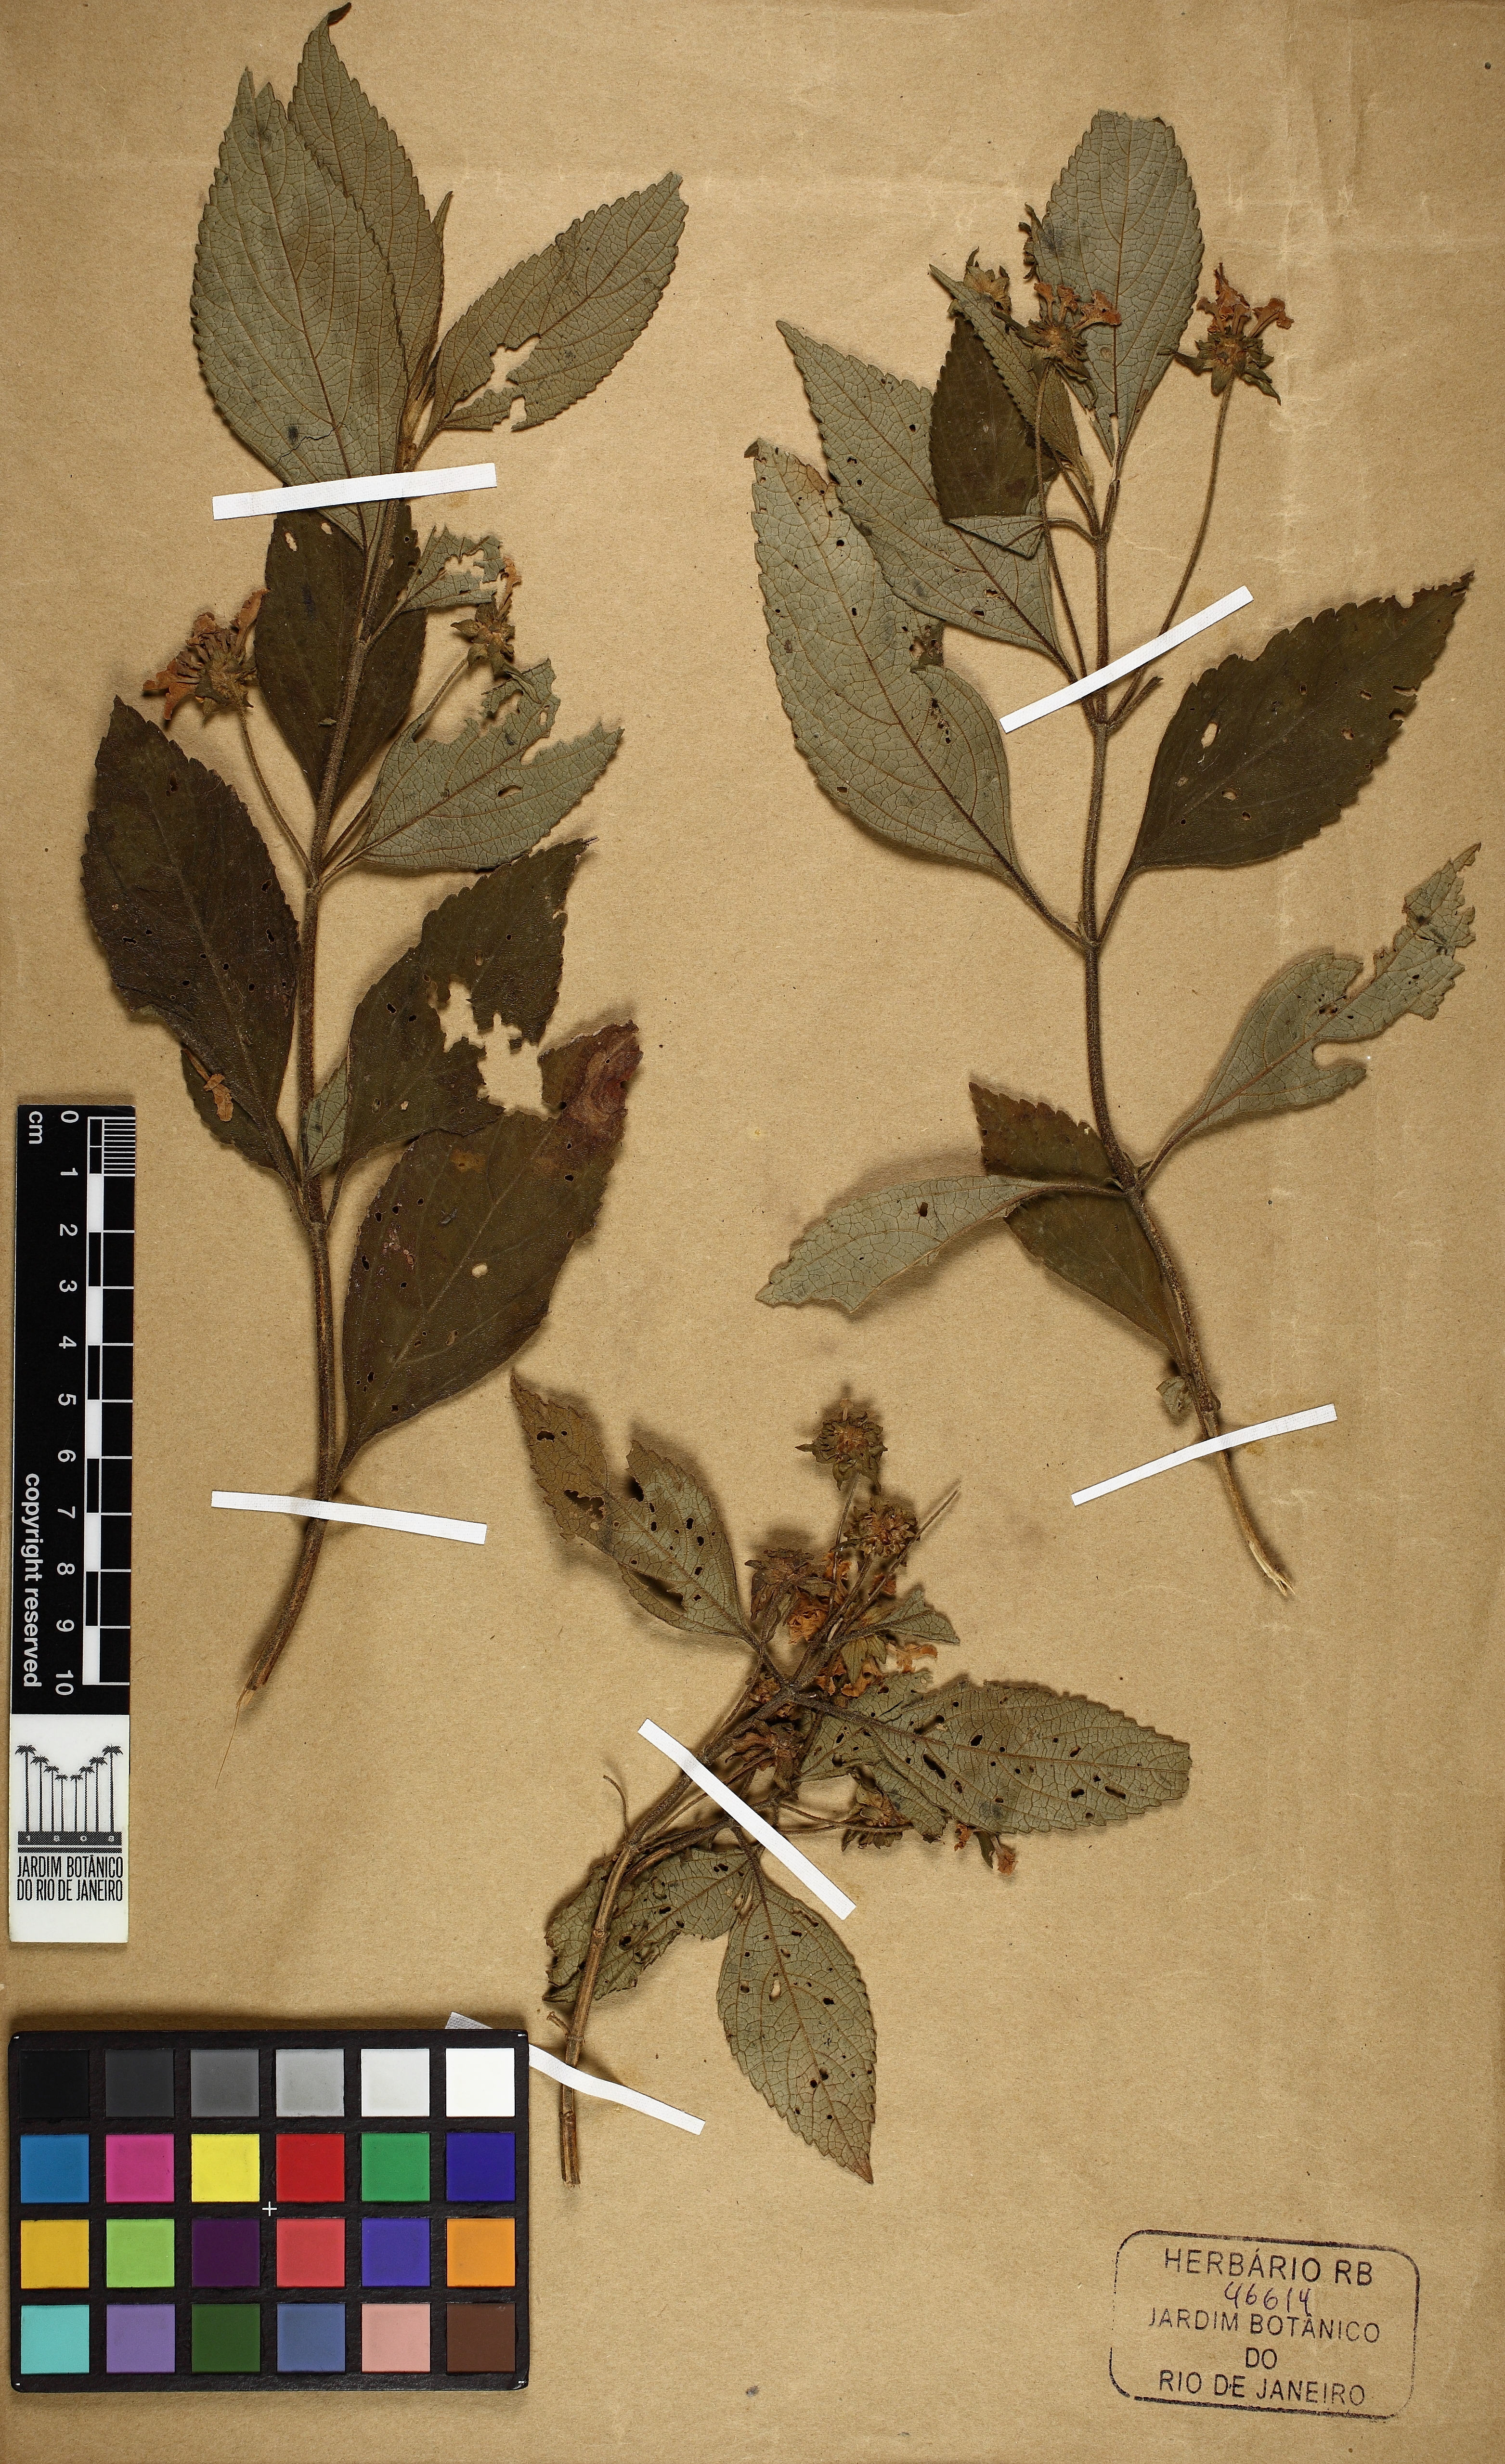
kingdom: Plantae
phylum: Tracheophyta
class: Magnoliopsida
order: Lamiales
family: Verbenaceae
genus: Lippia
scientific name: Lippia
